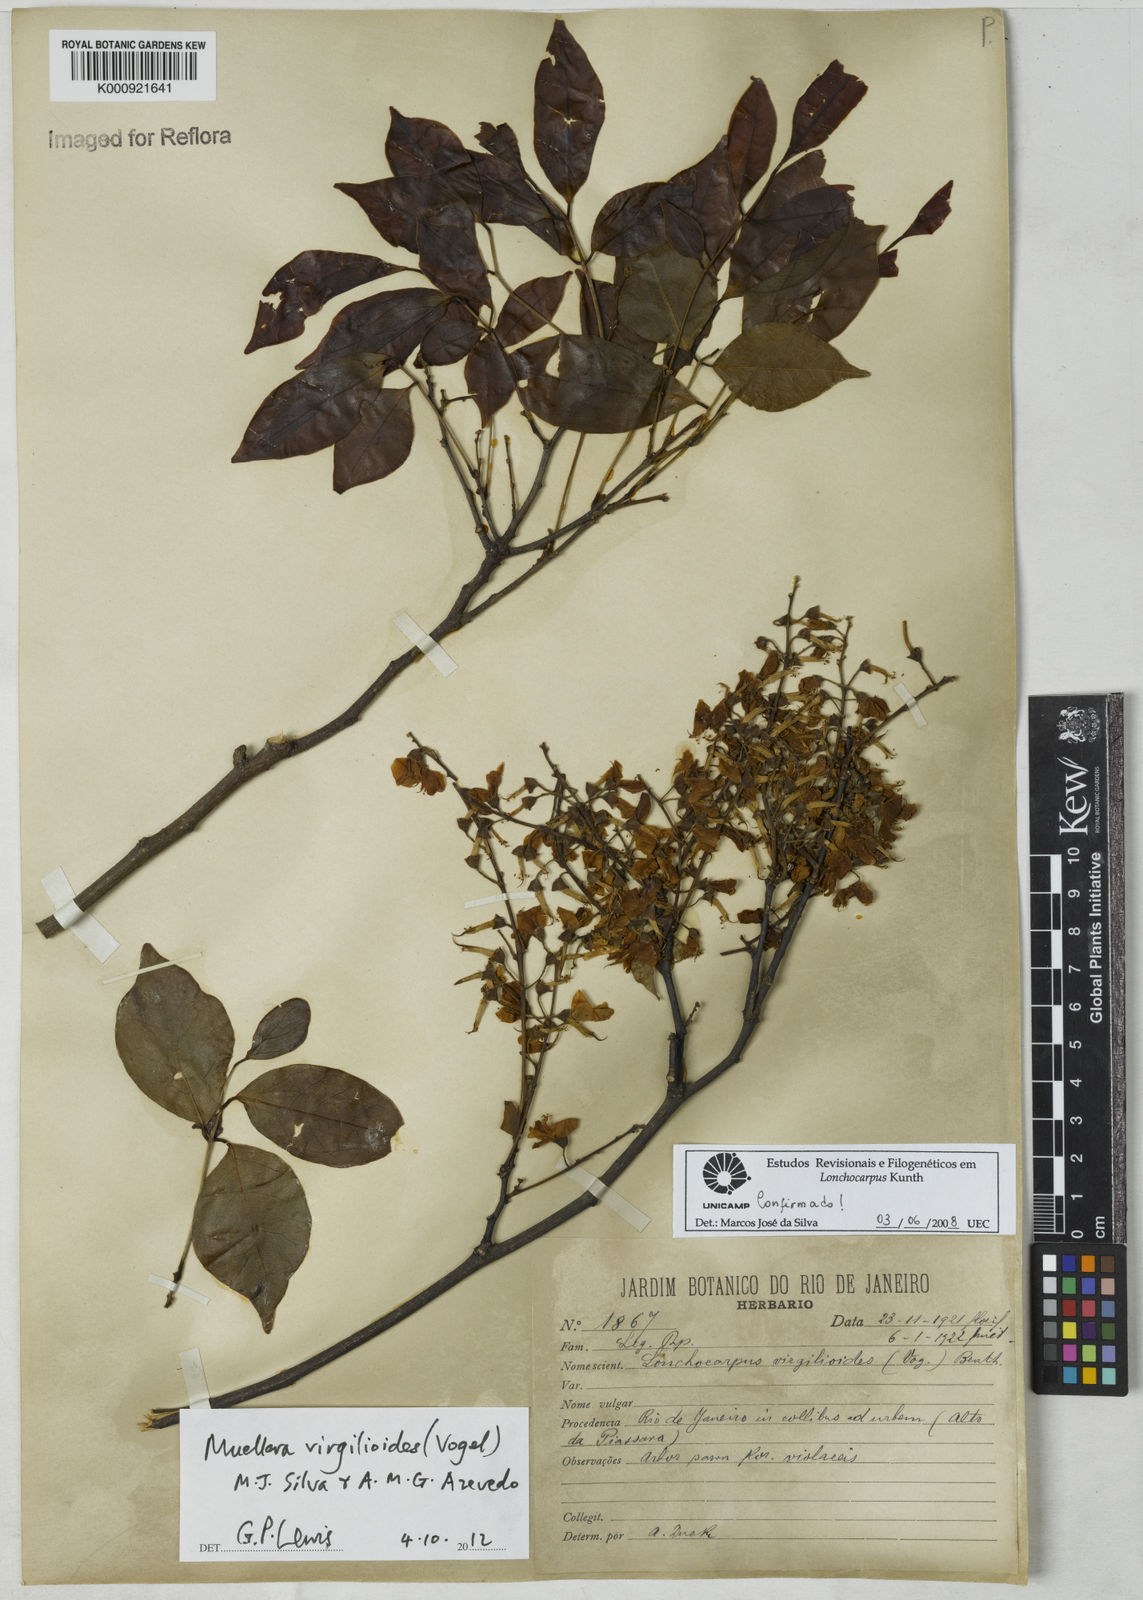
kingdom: Plantae
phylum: Tracheophyta
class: Magnoliopsida
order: Fabales
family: Fabaceae
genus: Muellera
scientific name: Muellera virgilioides
